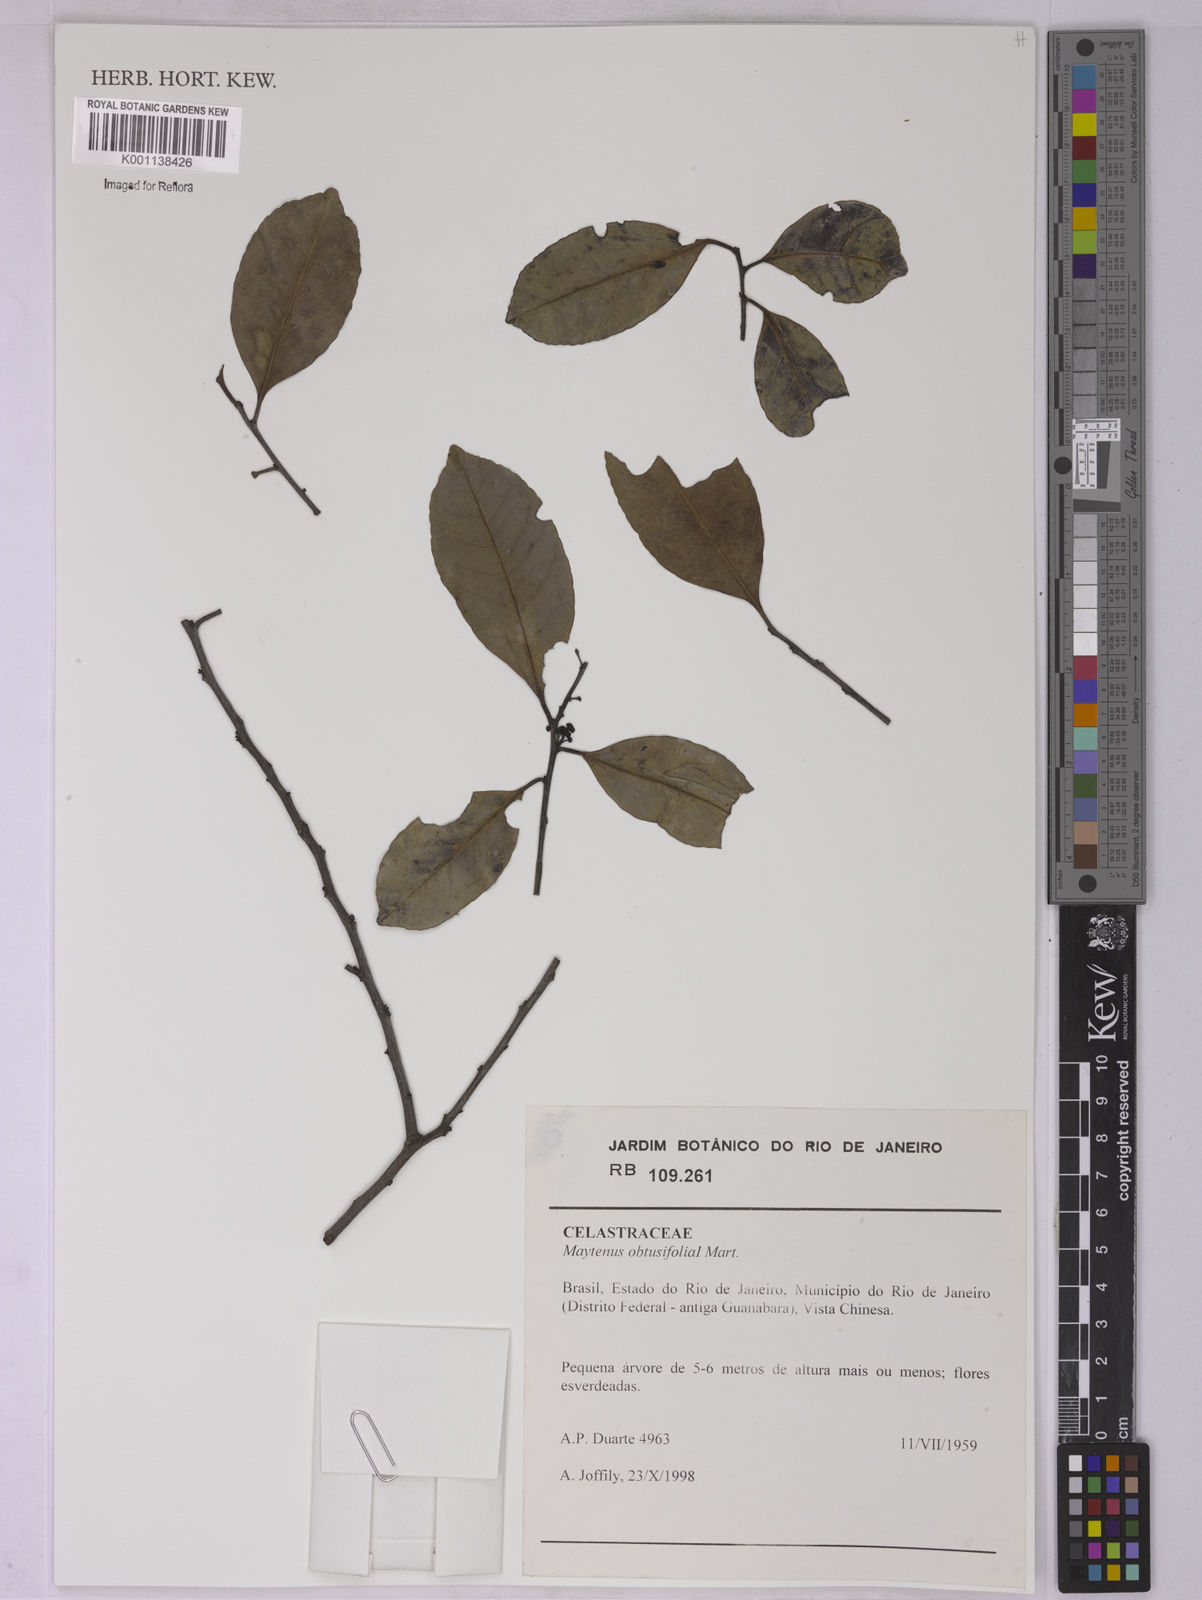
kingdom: Plantae
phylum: Tracheophyta
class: Magnoliopsida
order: Celastrales
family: Celastraceae
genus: Monteverdia
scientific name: Monteverdia obtusifolia
